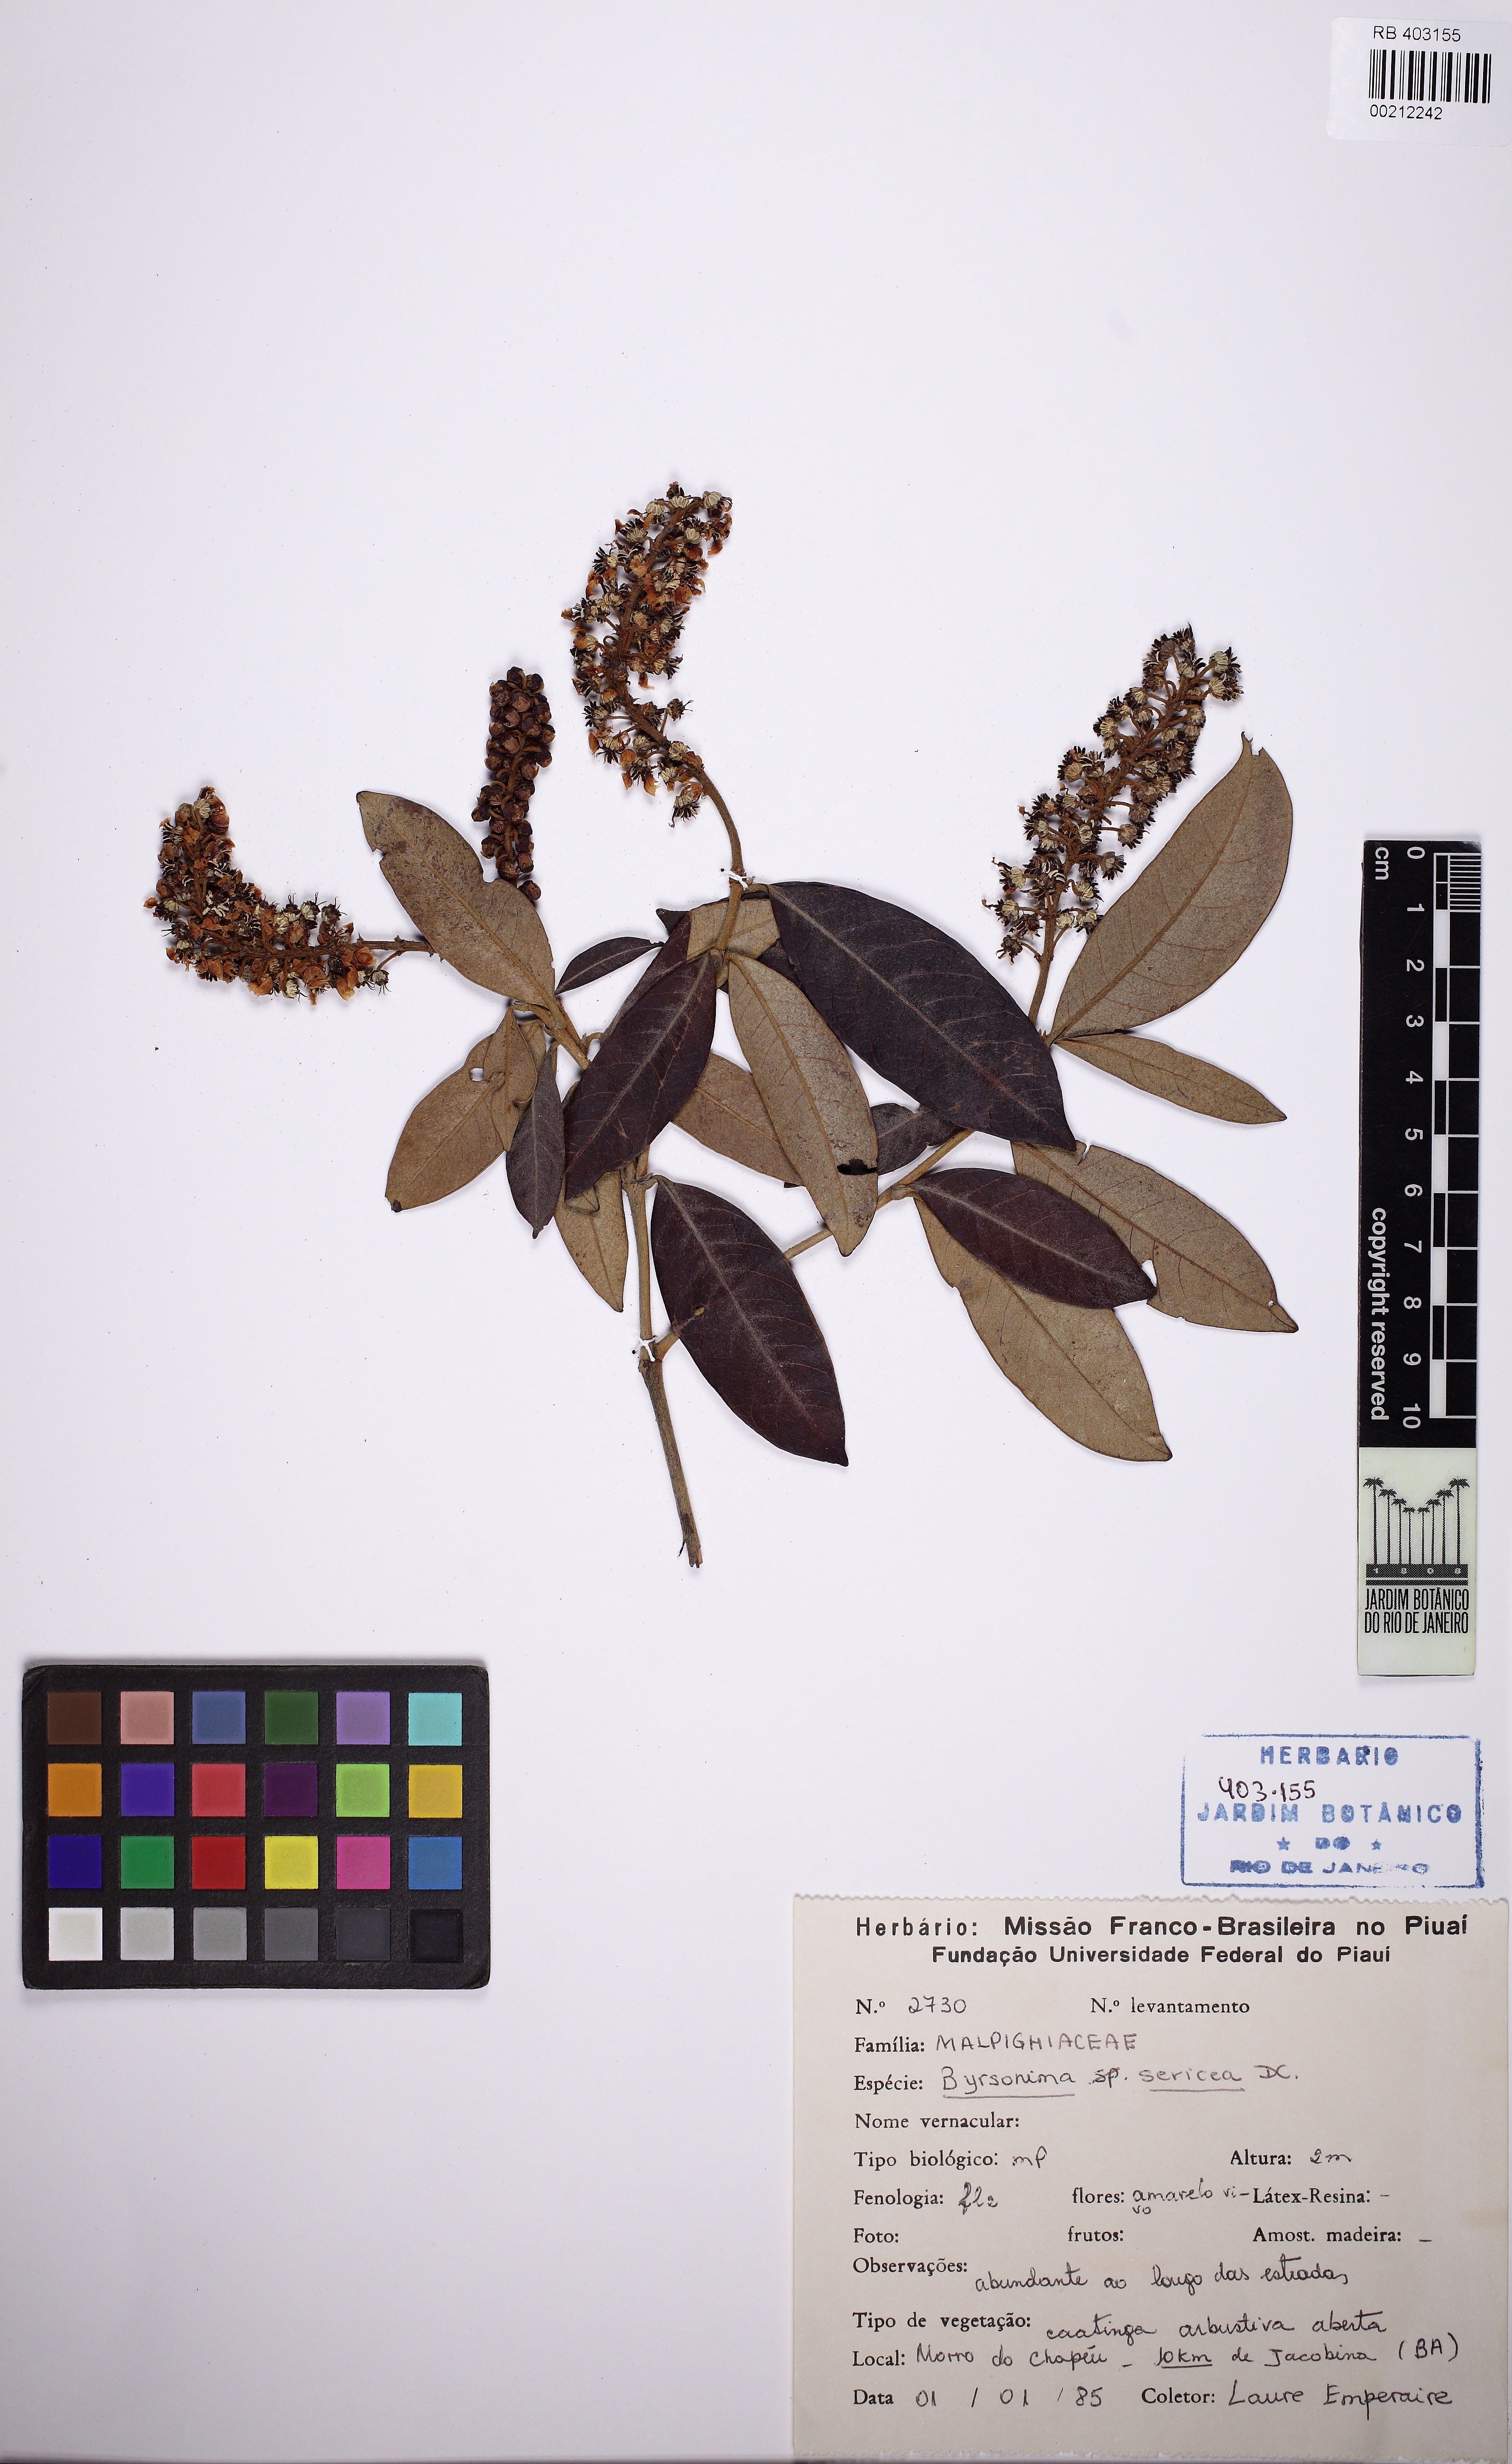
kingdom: Plantae
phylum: Tracheophyta
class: Magnoliopsida
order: Malpighiales
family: Malpighiaceae
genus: Byrsonima
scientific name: Byrsonima sericea
